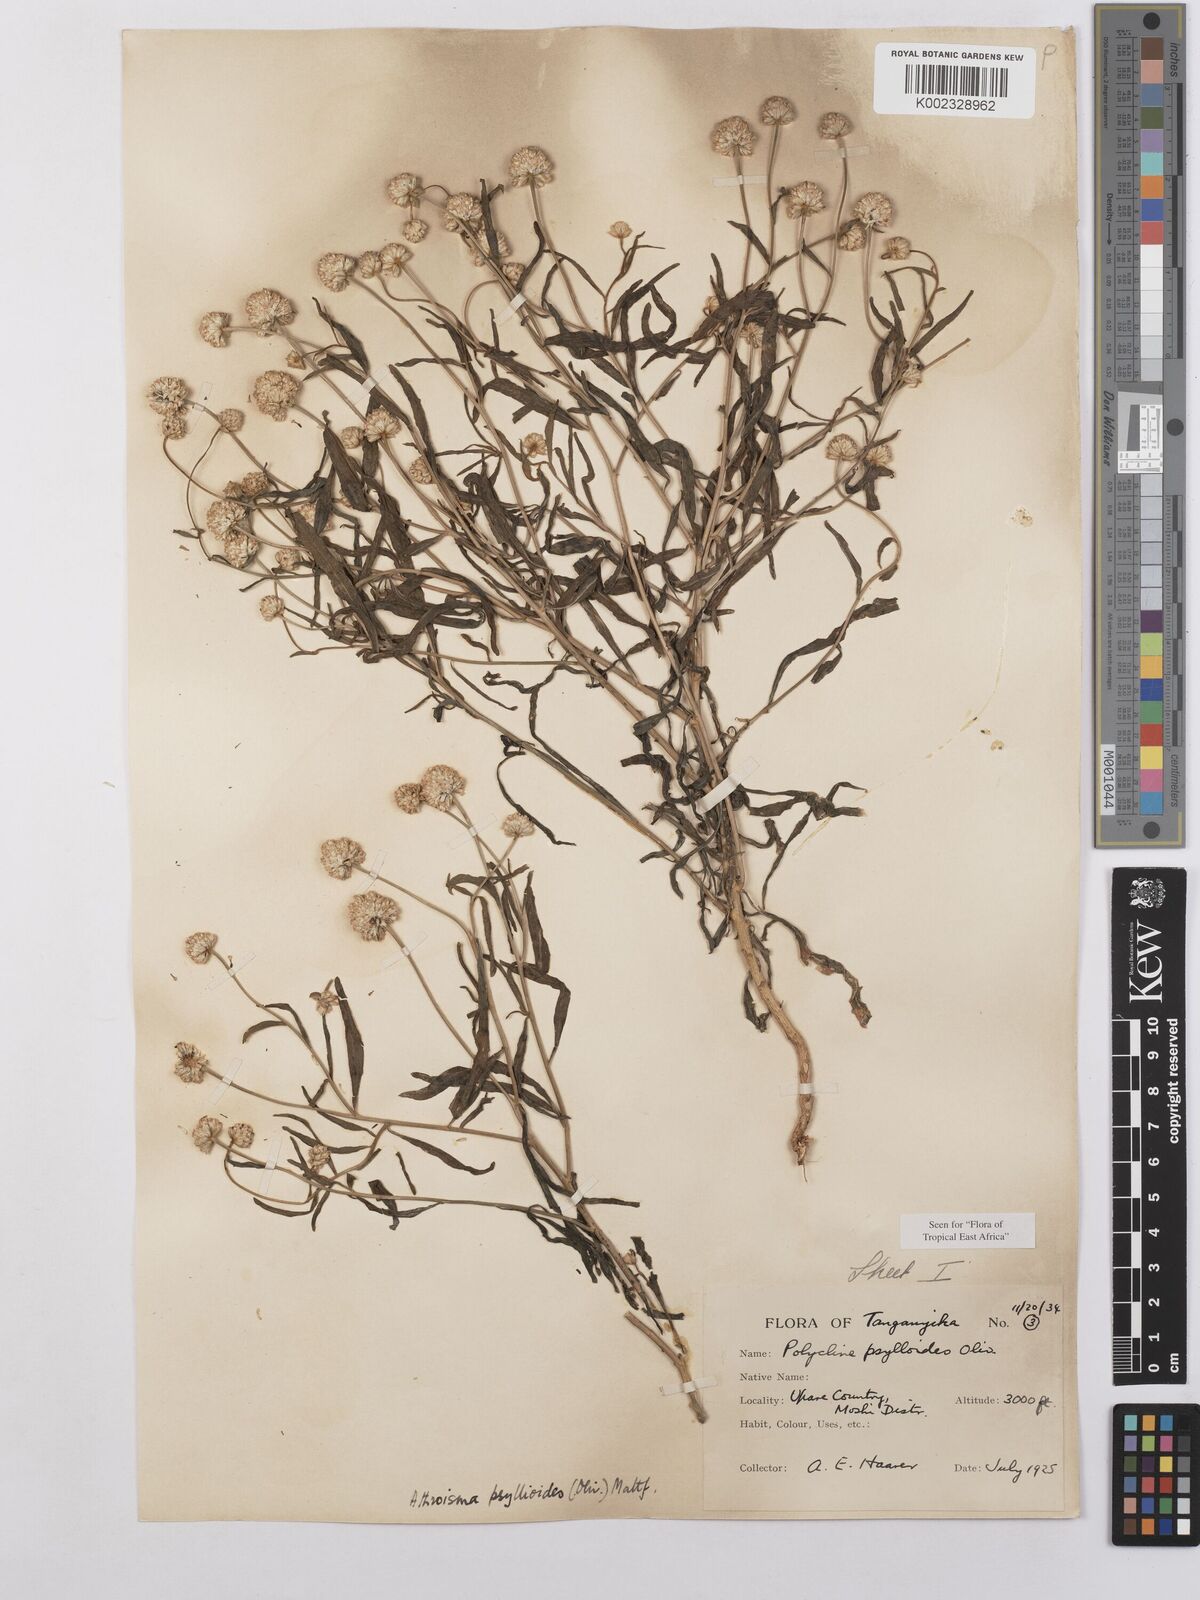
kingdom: Plantae
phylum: Tracheophyta
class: Magnoliopsida
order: Asterales
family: Asteraceae
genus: Athroisma
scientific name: Athroisma gracile
